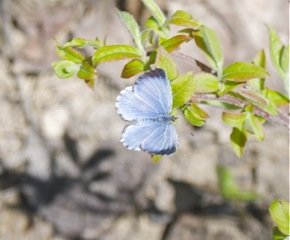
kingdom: Animalia
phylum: Arthropoda
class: Insecta
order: Lepidoptera
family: Lycaenidae
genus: Celastrina
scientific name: Celastrina lucia
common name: Northern Spring Azure
